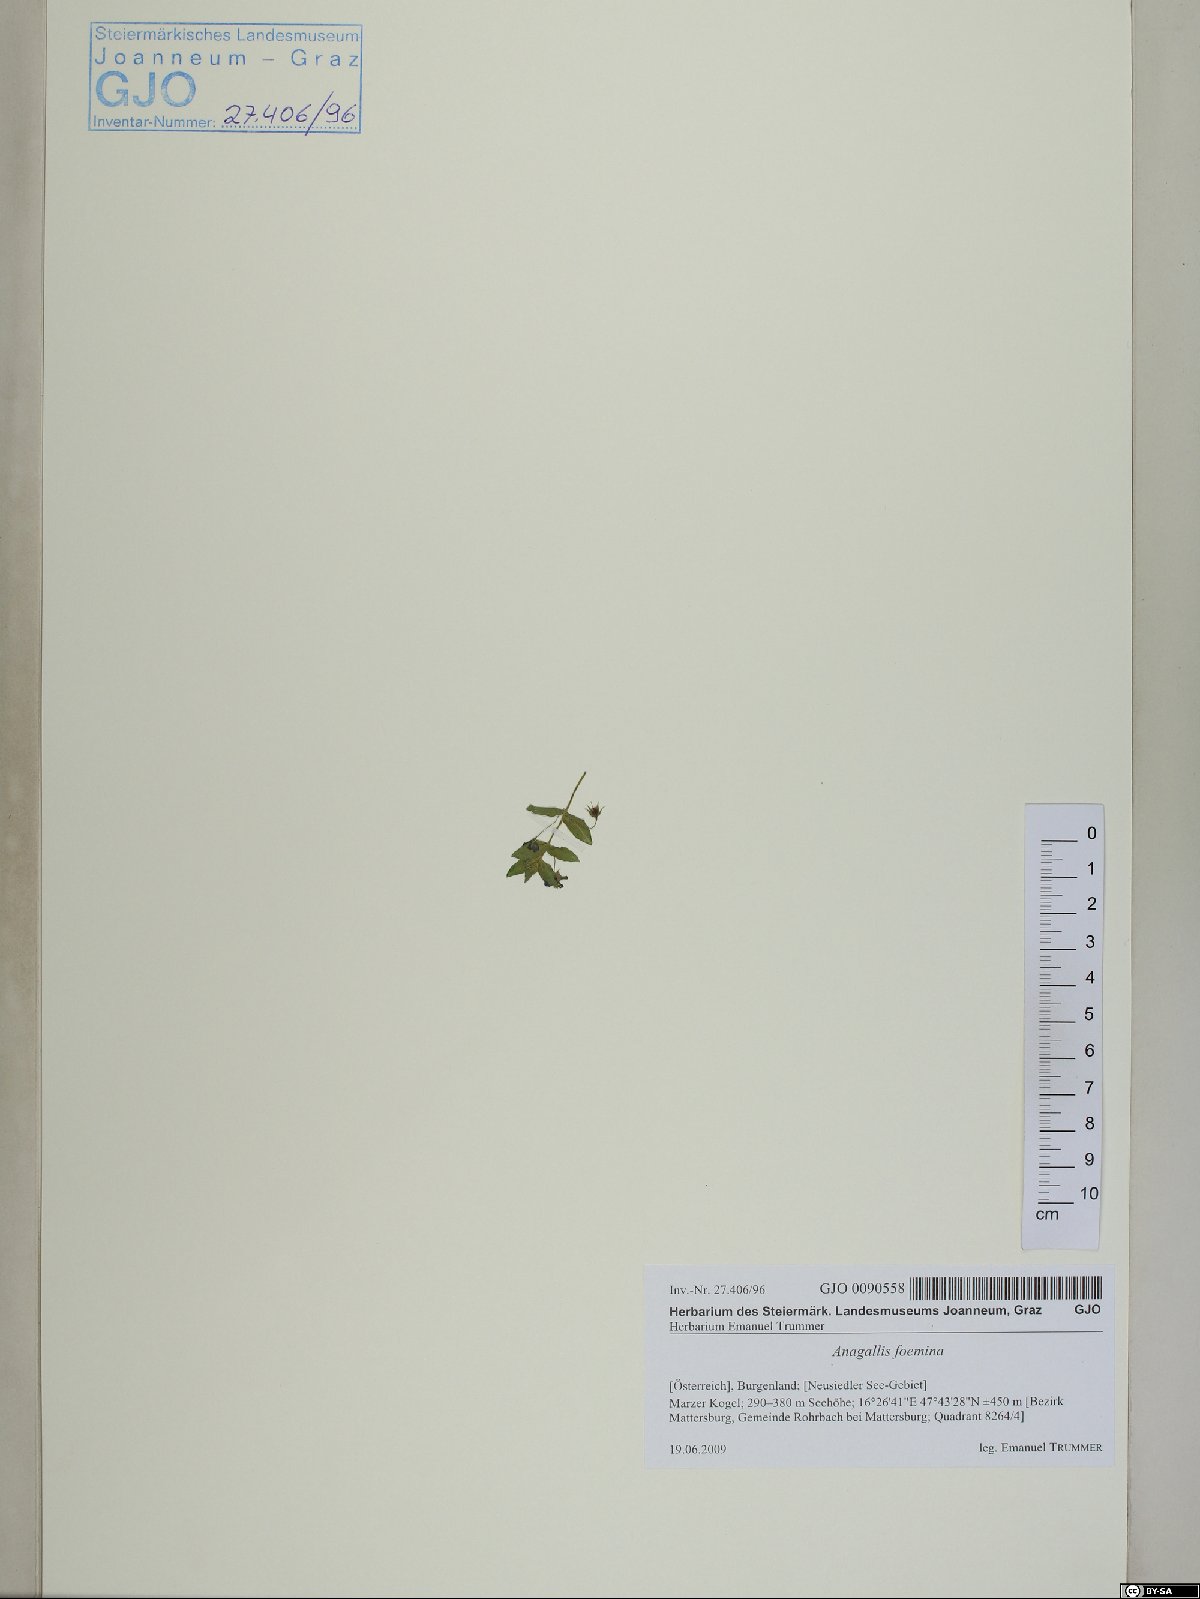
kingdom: Plantae
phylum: Tracheophyta
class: Magnoliopsida
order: Ericales
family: Primulaceae
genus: Lysimachia
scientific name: Lysimachia foemina
